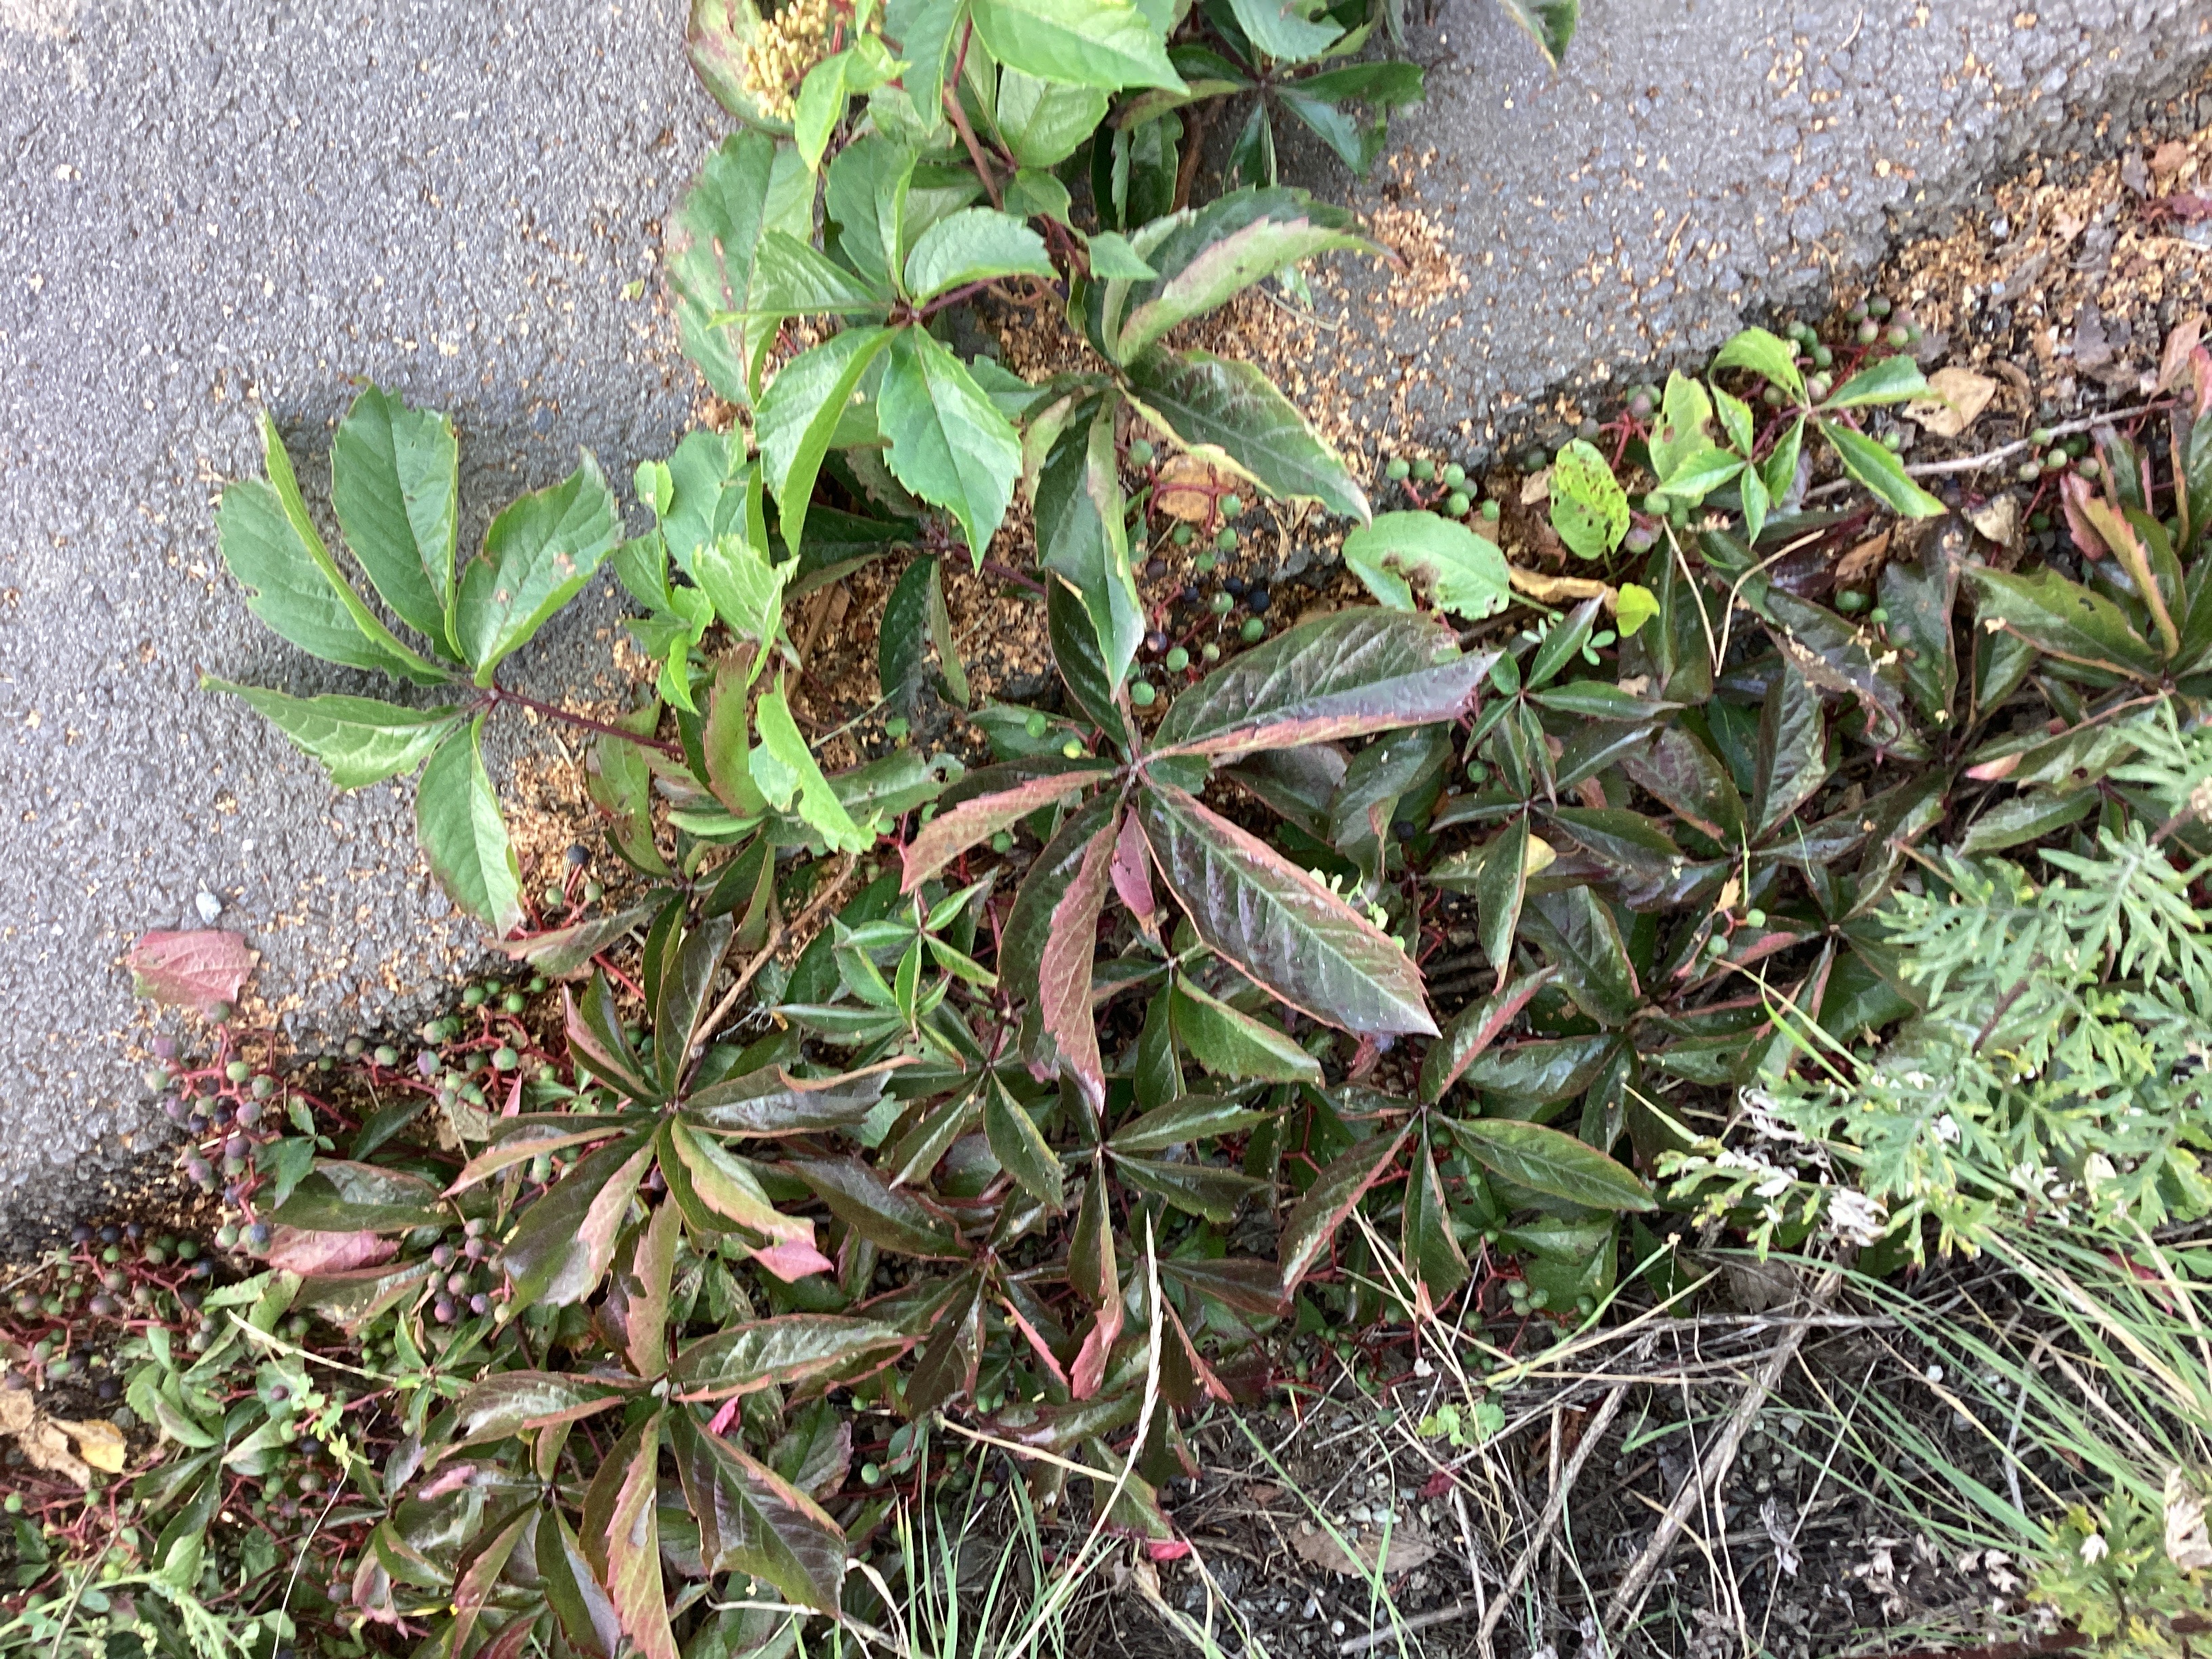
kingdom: Plantae
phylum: Tracheophyta
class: Magnoliopsida
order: Vitales
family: Vitaceae
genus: Parthenocissus
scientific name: Parthenocissus quinquefolia
